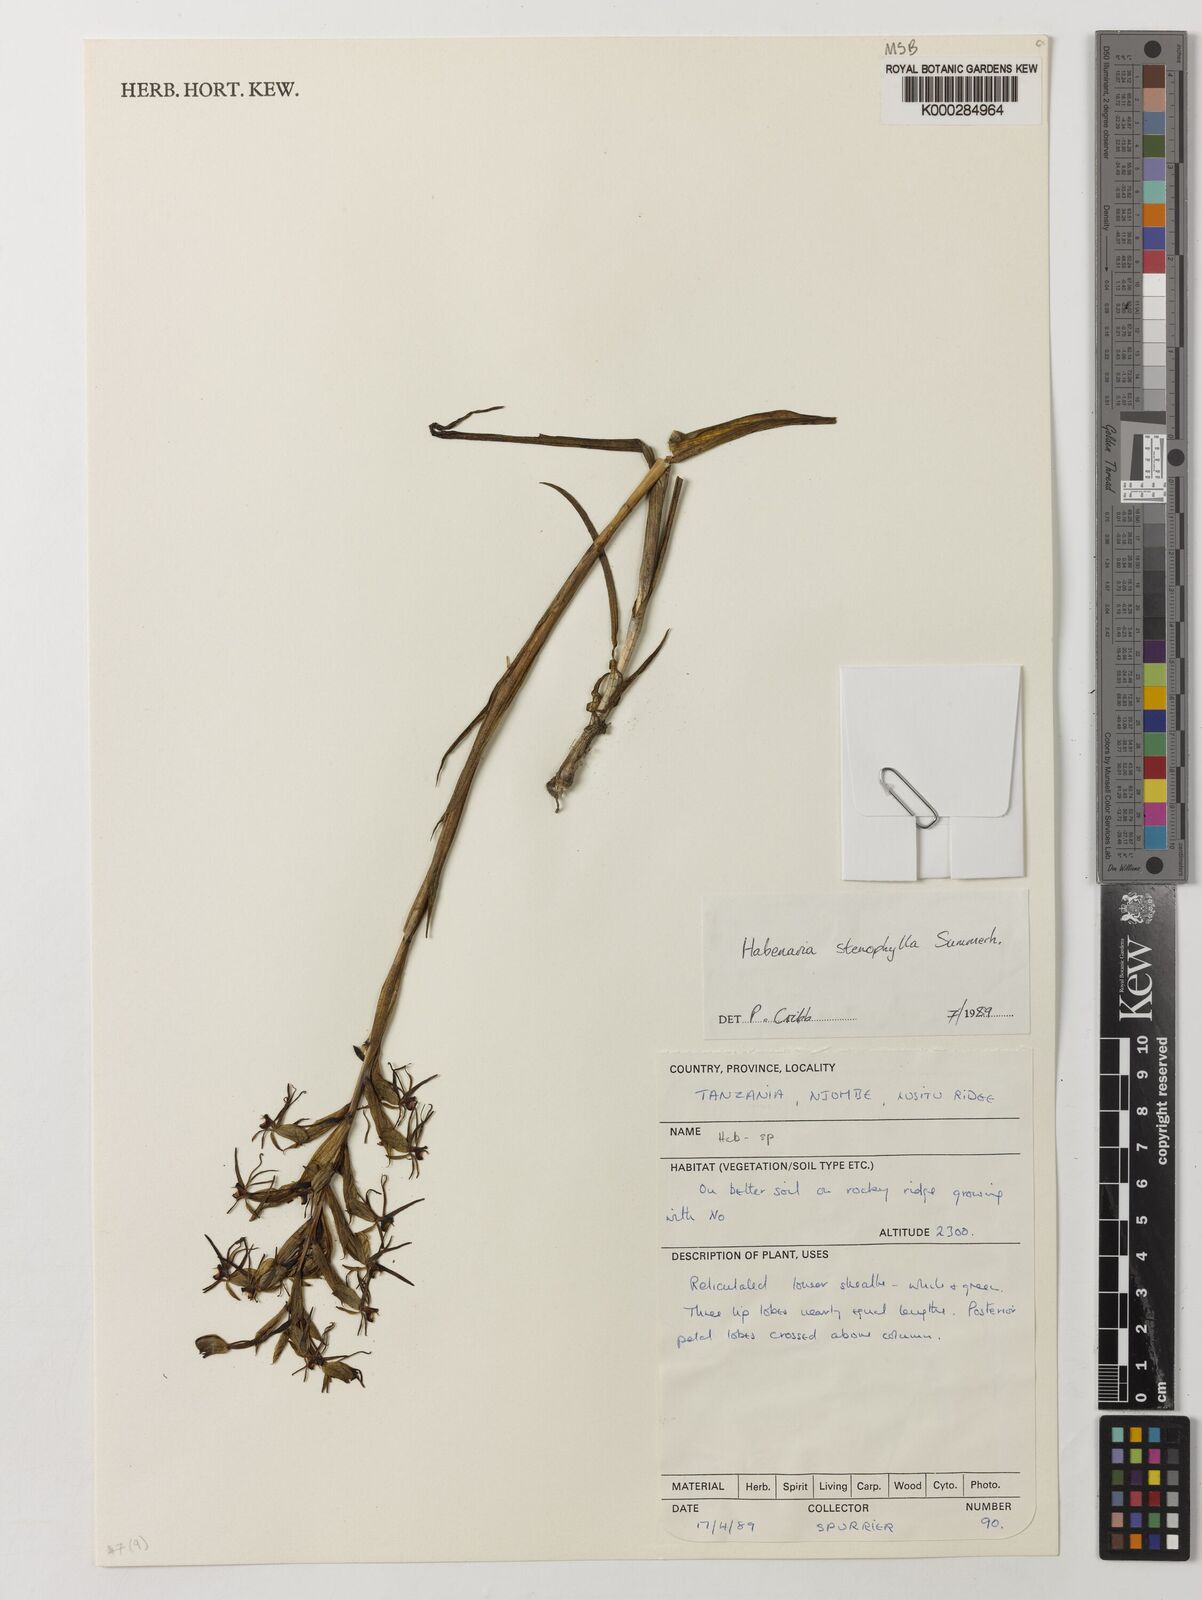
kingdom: Plantae
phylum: Tracheophyta
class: Liliopsida
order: Asparagales
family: Orchidaceae
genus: Habenaria
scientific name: Habenaria stenophylla
